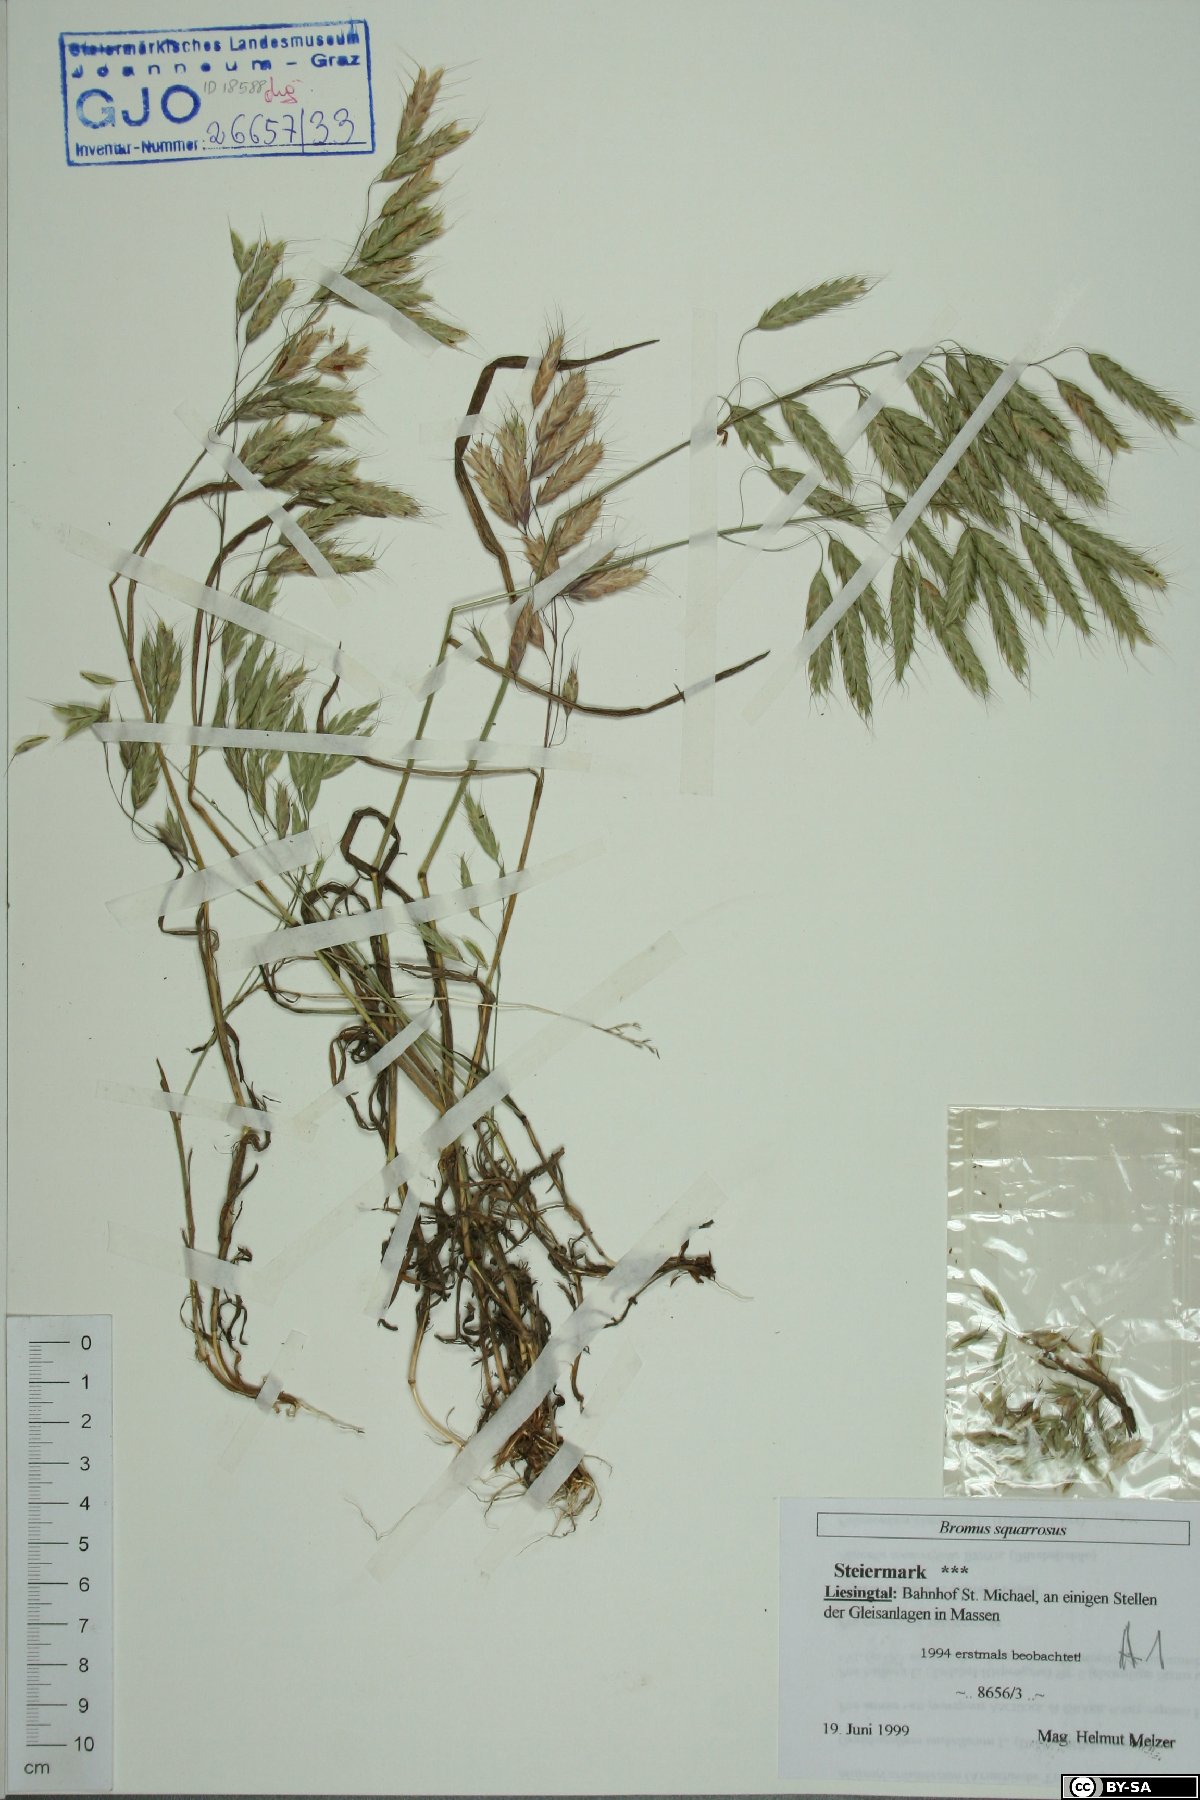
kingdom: Plantae
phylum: Tracheophyta
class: Liliopsida
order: Poales
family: Poaceae
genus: Bromus
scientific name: Bromus squarrosus
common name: Corn brome
